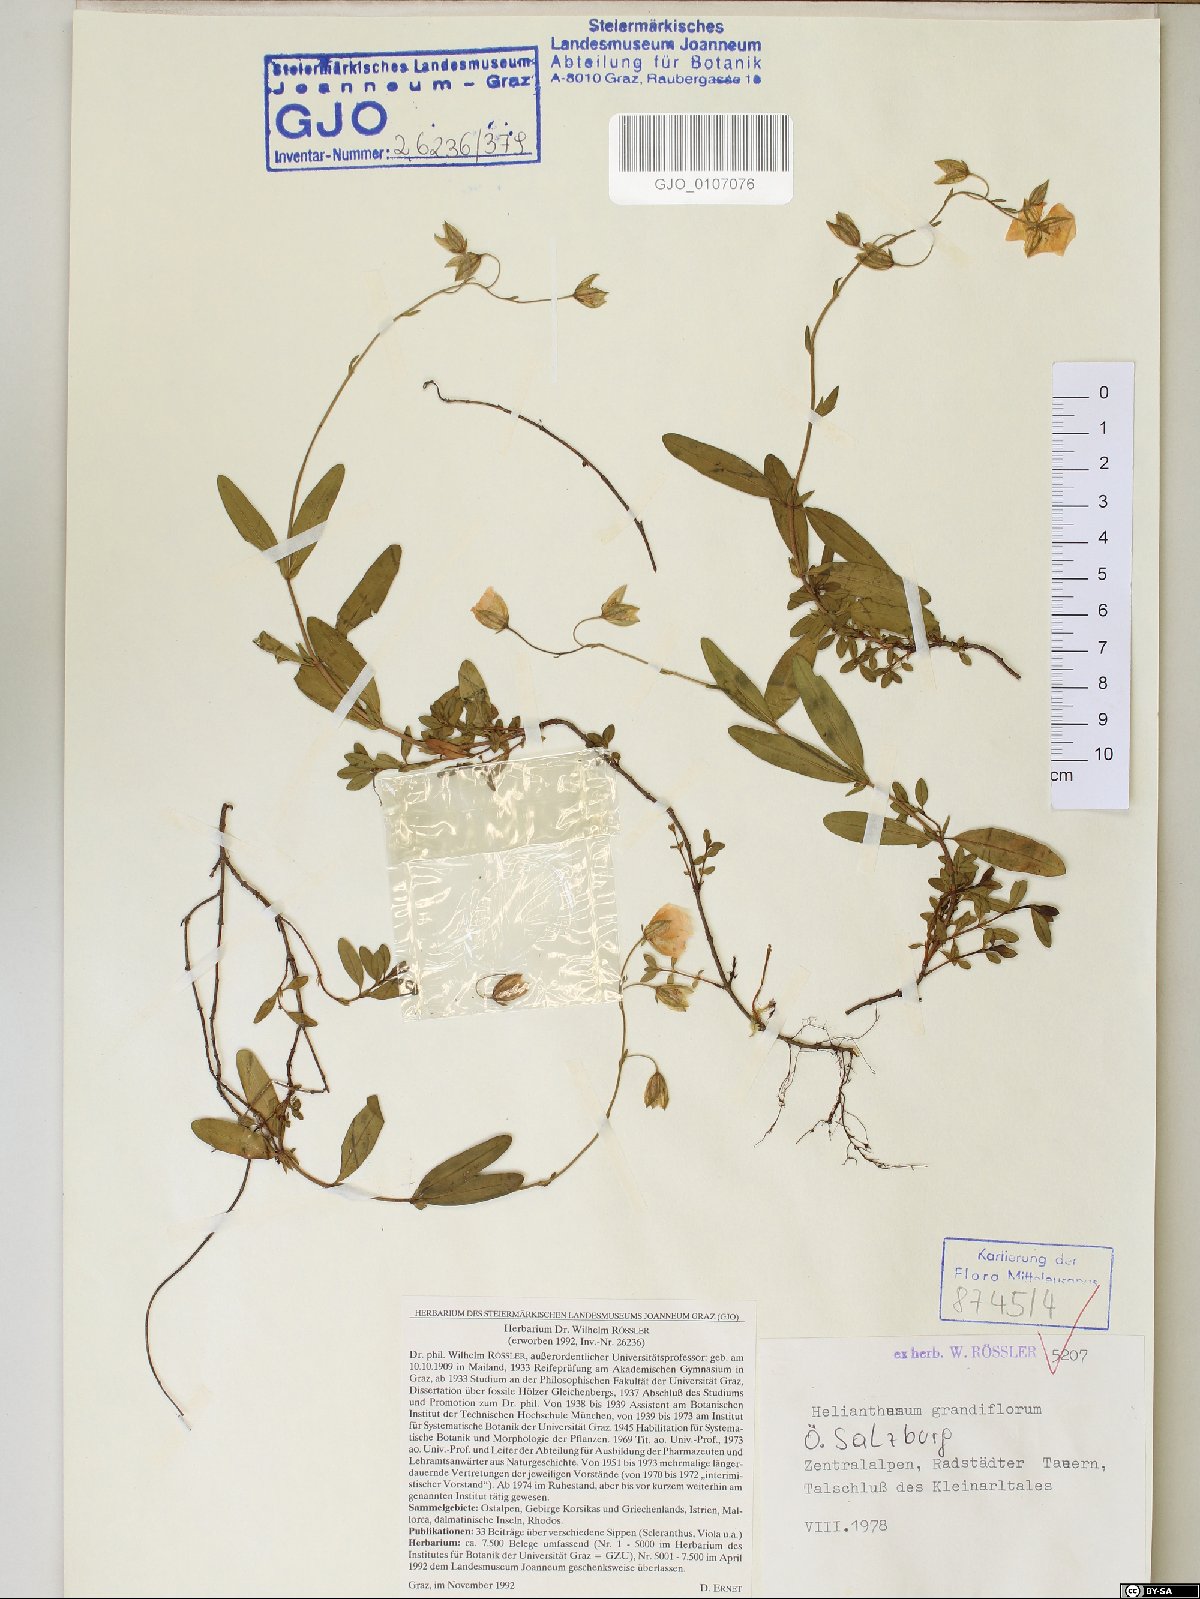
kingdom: Plantae
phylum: Tracheophyta
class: Magnoliopsida
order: Malvales
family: Cistaceae
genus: Helianthemum
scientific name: Helianthemum nummularium
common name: Common rock-rose
